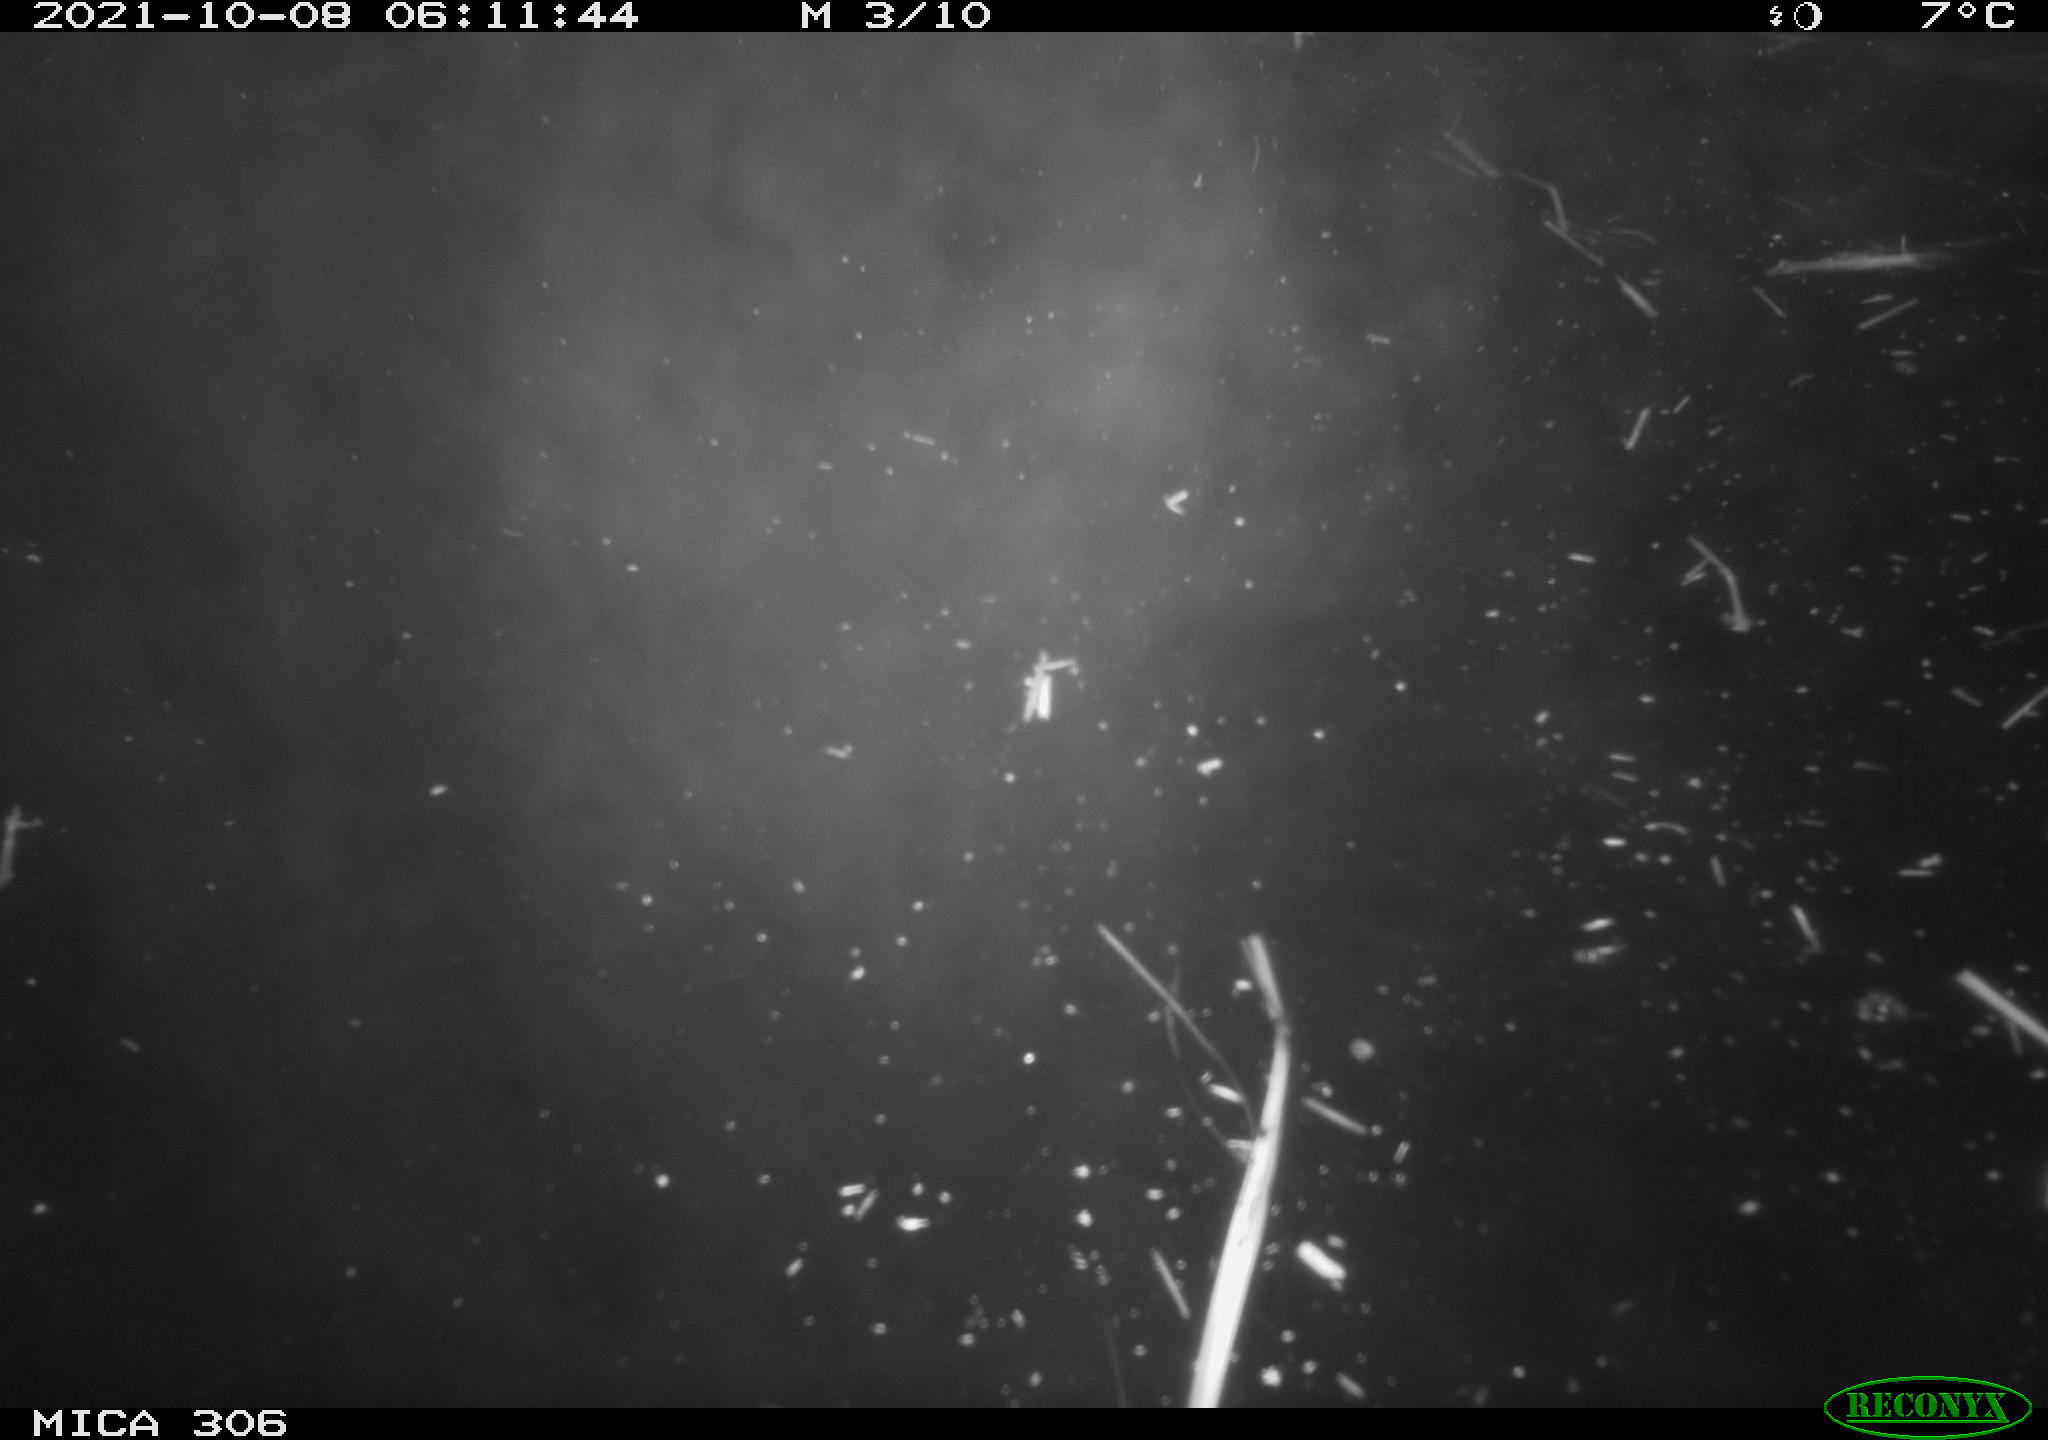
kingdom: Animalia
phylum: Chordata
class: Mammalia
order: Rodentia
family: Cricetidae
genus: Ondatra
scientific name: Ondatra zibethicus
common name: Muskrat
